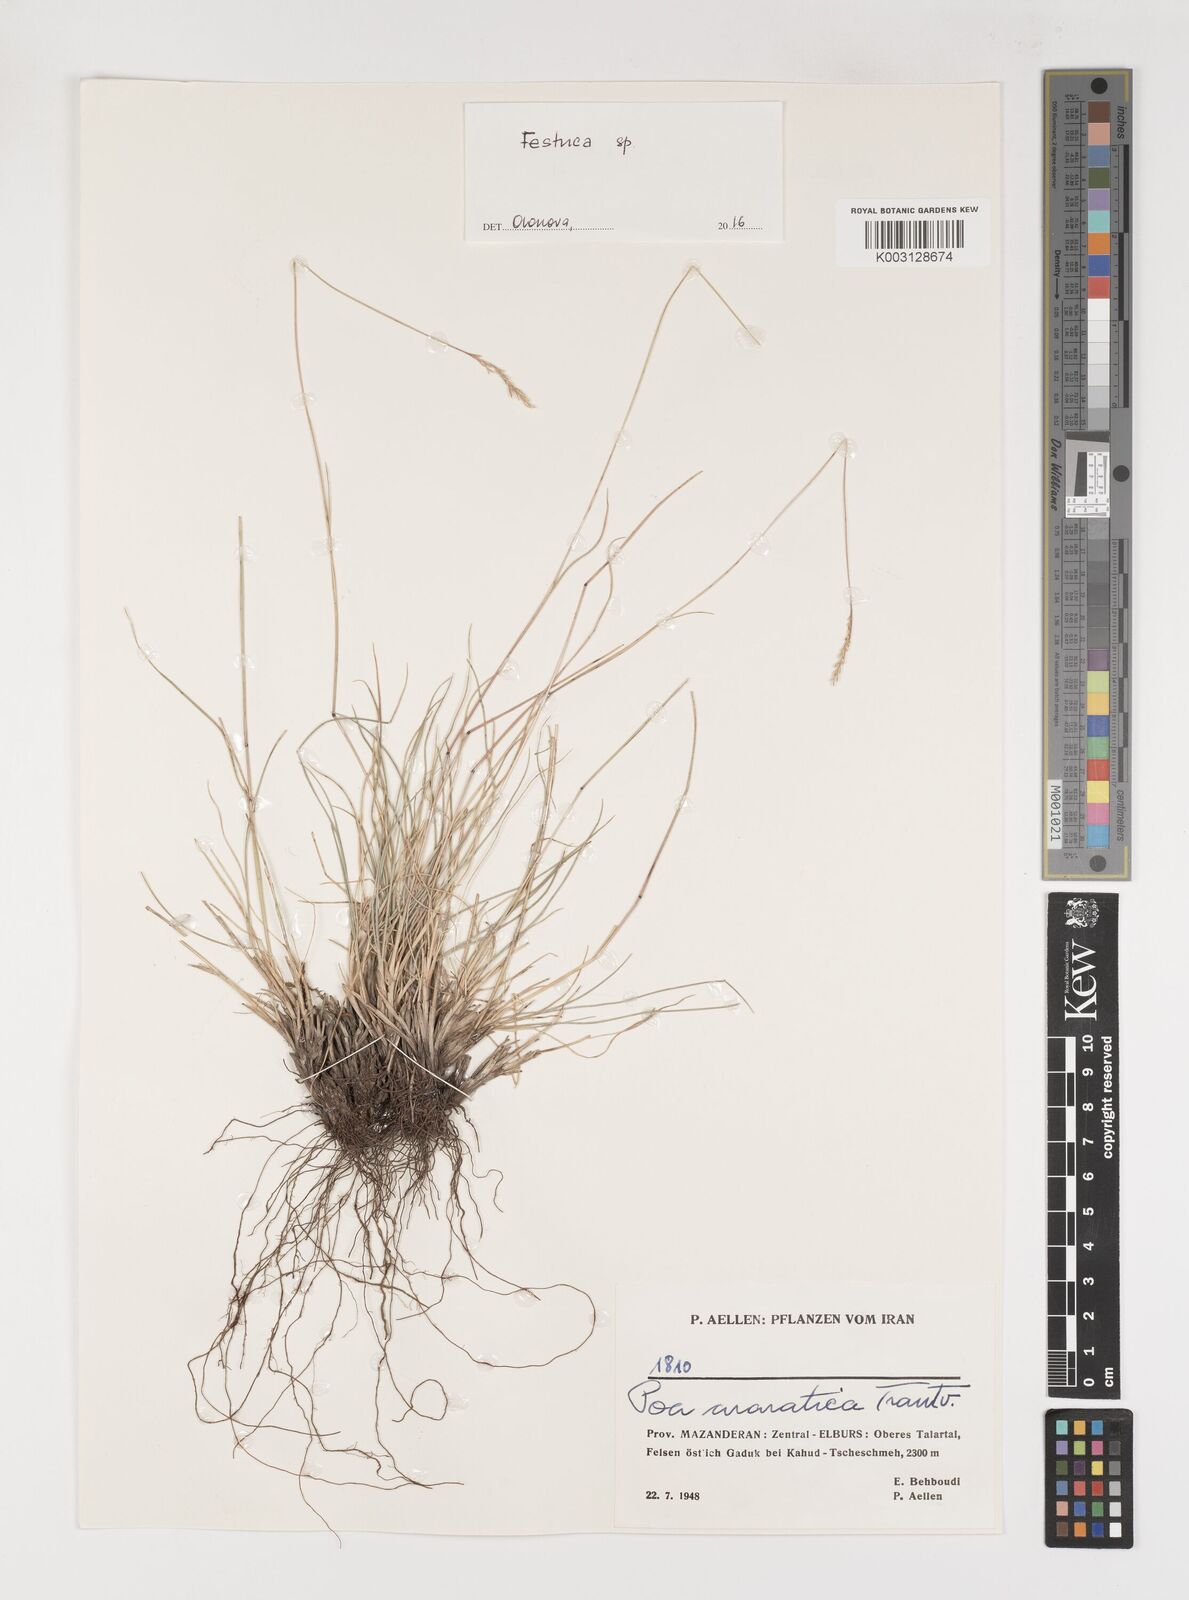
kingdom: Plantae
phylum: Tracheophyta
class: Liliopsida
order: Poales
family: Poaceae
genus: Poa
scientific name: Poa araratica
